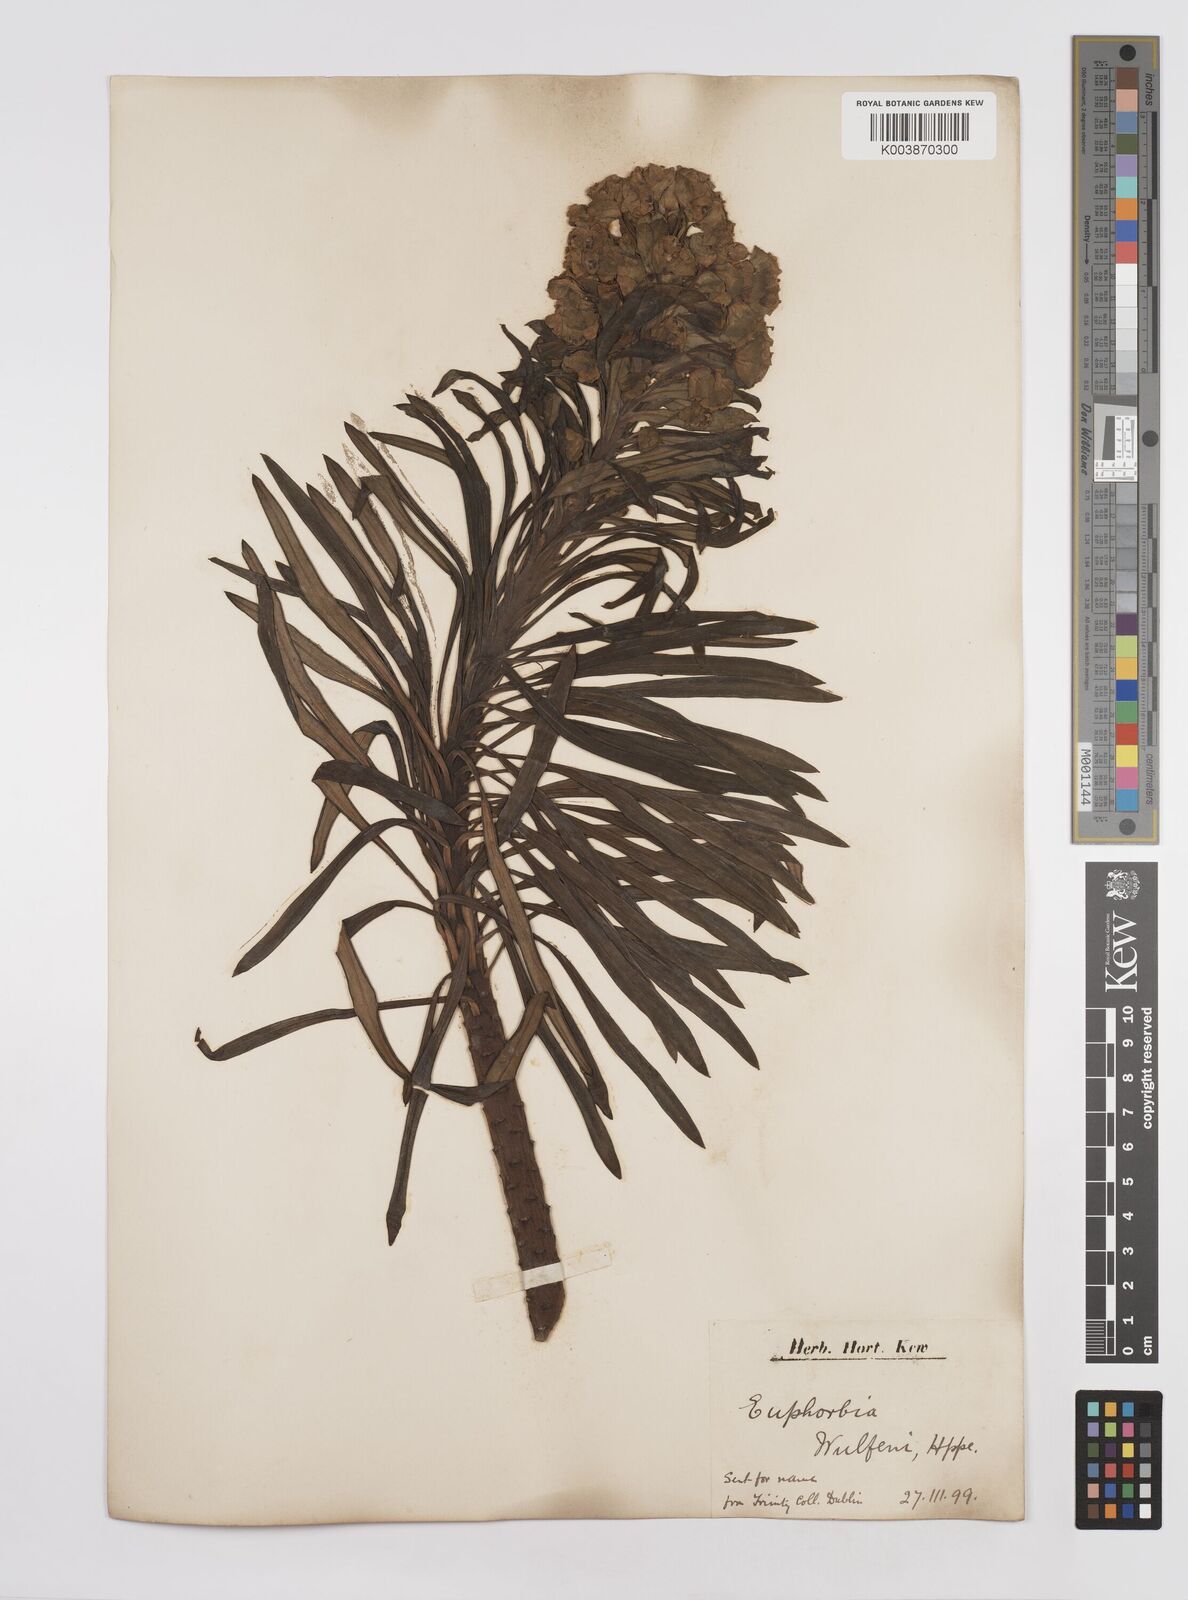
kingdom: Plantae
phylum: Tracheophyta
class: Magnoliopsida
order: Malpighiales
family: Euphorbiaceae
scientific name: Euphorbiaceae
